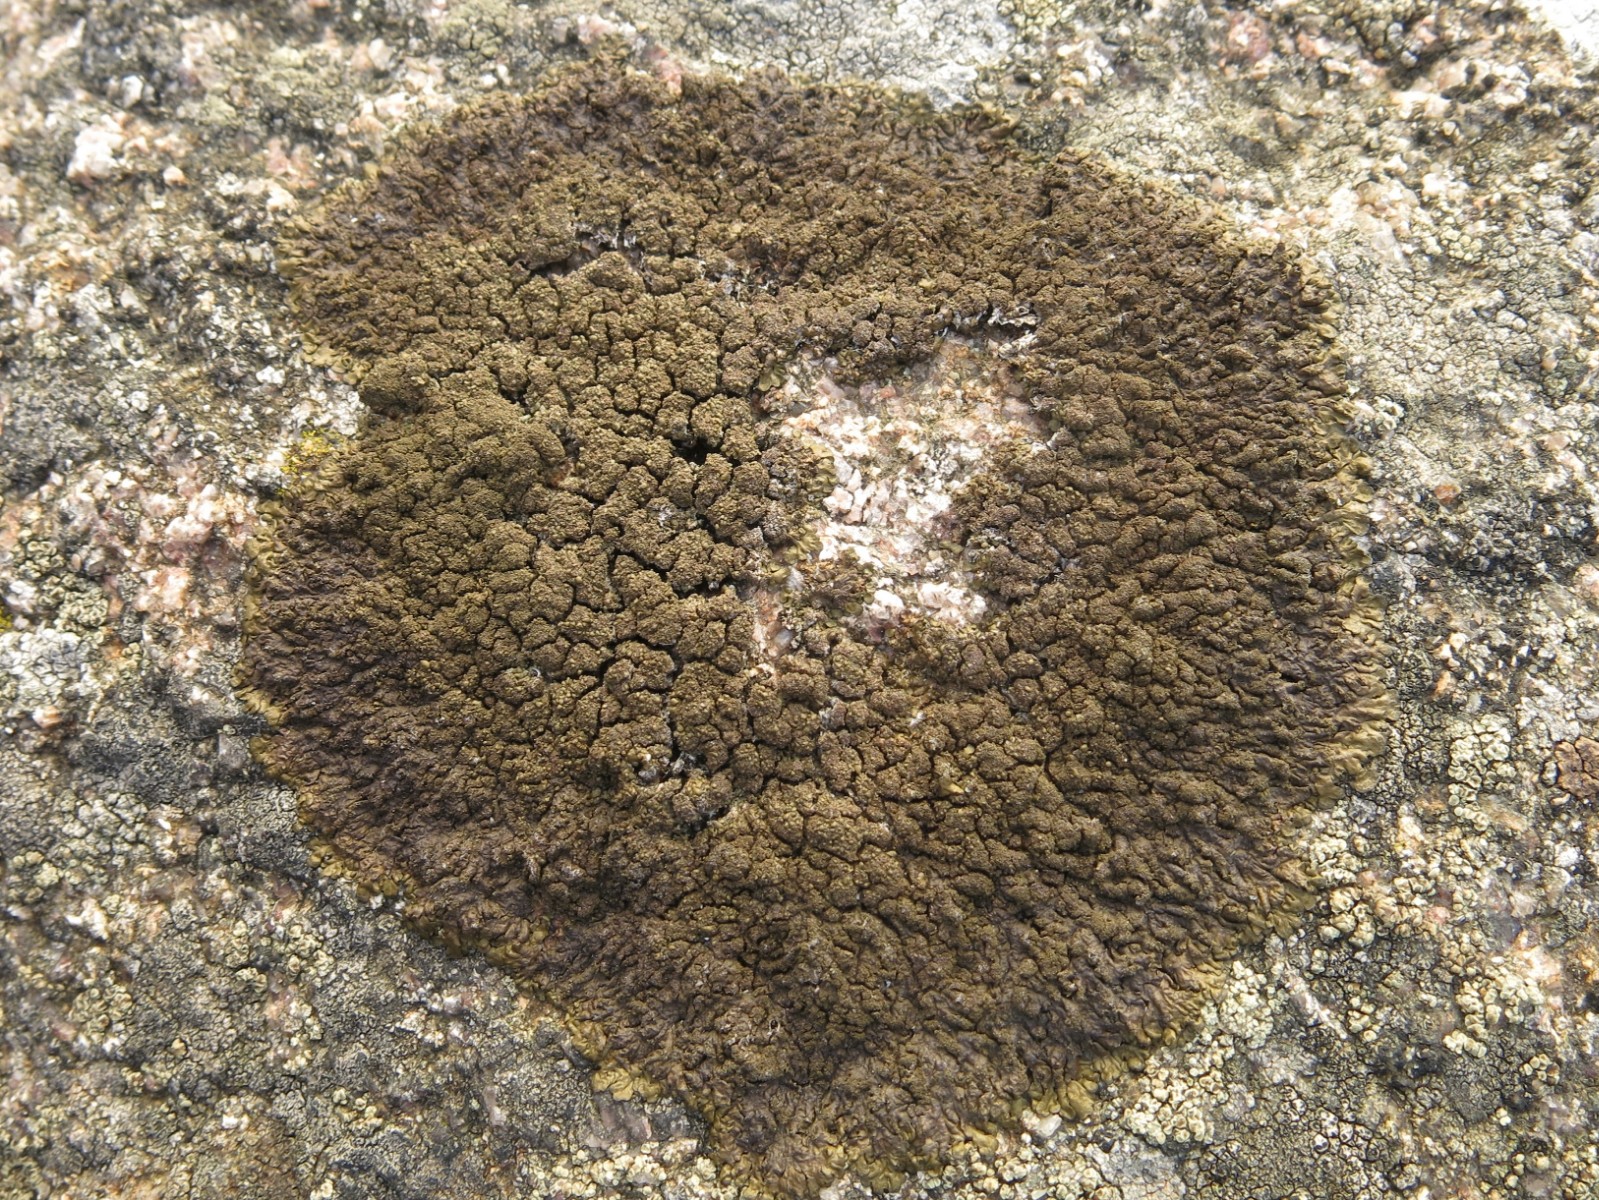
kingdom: Fungi
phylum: Ascomycota
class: Lecanoromycetes
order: Lecanorales
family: Parmeliaceae
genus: Xanthoparmelia
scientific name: Xanthoparmelia loxodes
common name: knudret skållav
